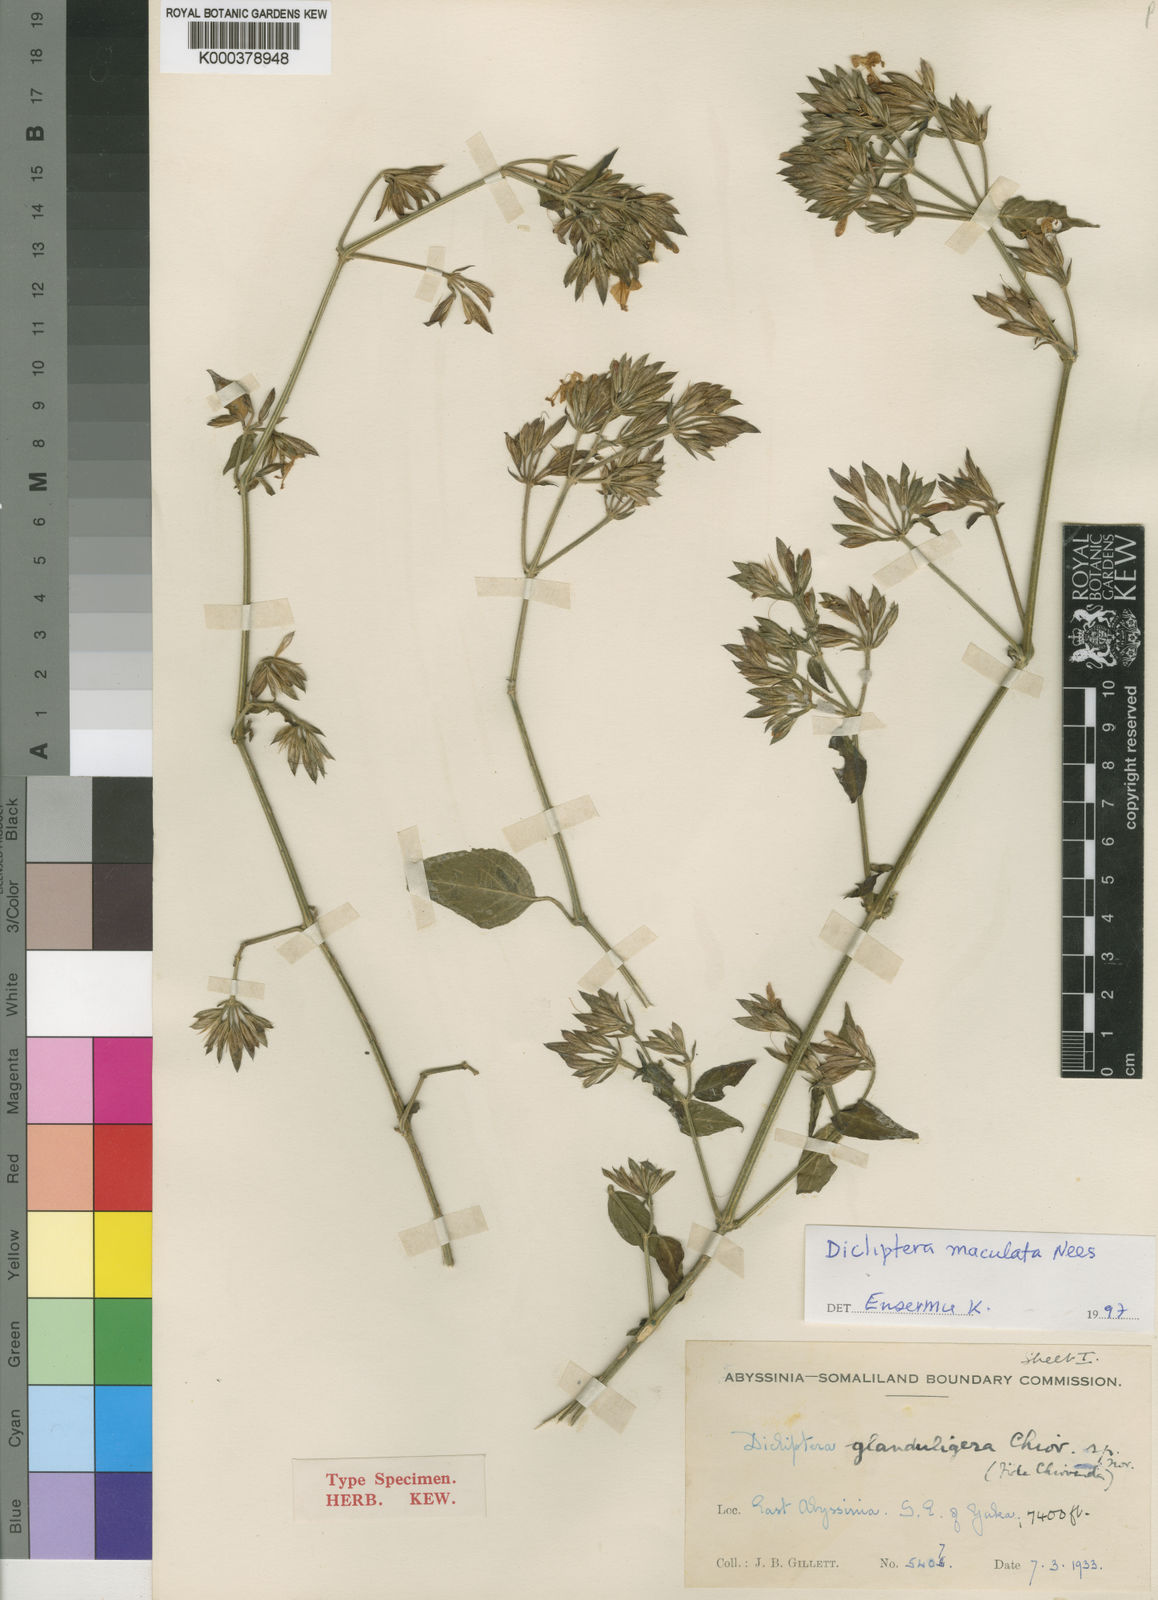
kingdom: Plantae
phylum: Tracheophyta
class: Magnoliopsida
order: Lamiales
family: Acanthaceae
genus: Dicliptera
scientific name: Dicliptera maculata
